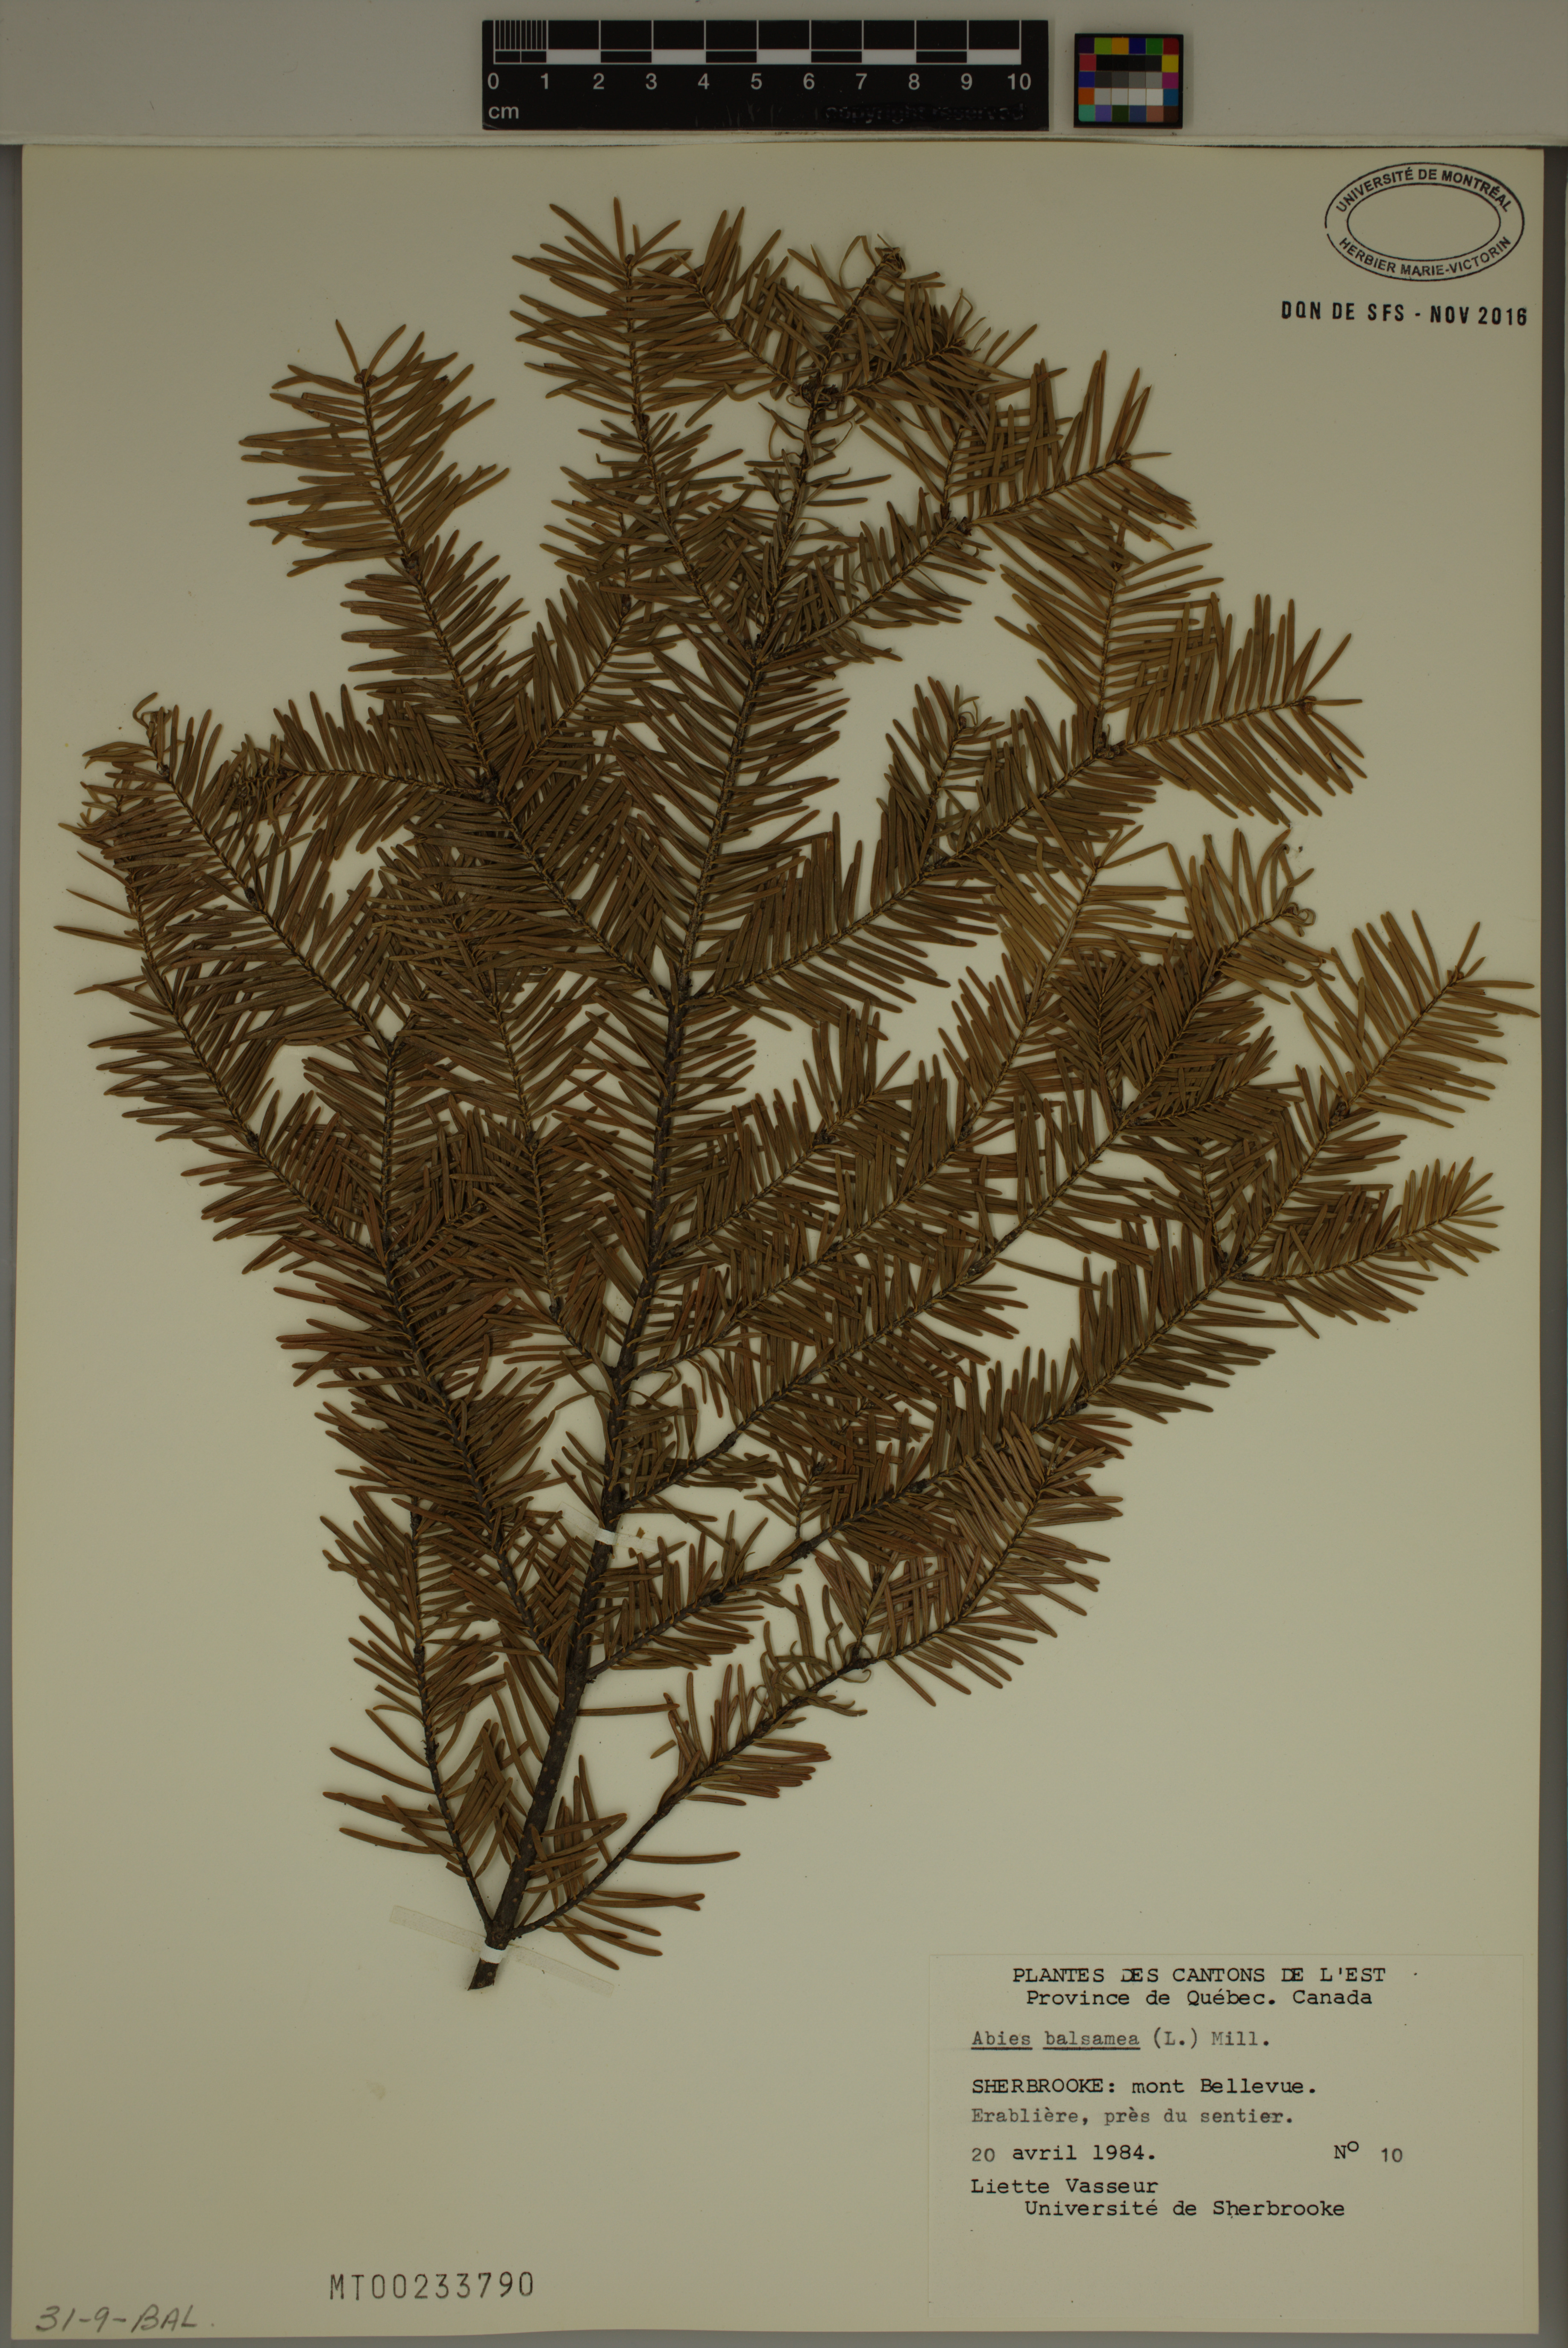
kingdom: Plantae
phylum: Tracheophyta
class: Pinopsida
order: Pinales
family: Pinaceae
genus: Abies
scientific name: Abies balsamea
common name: Balsam fir
